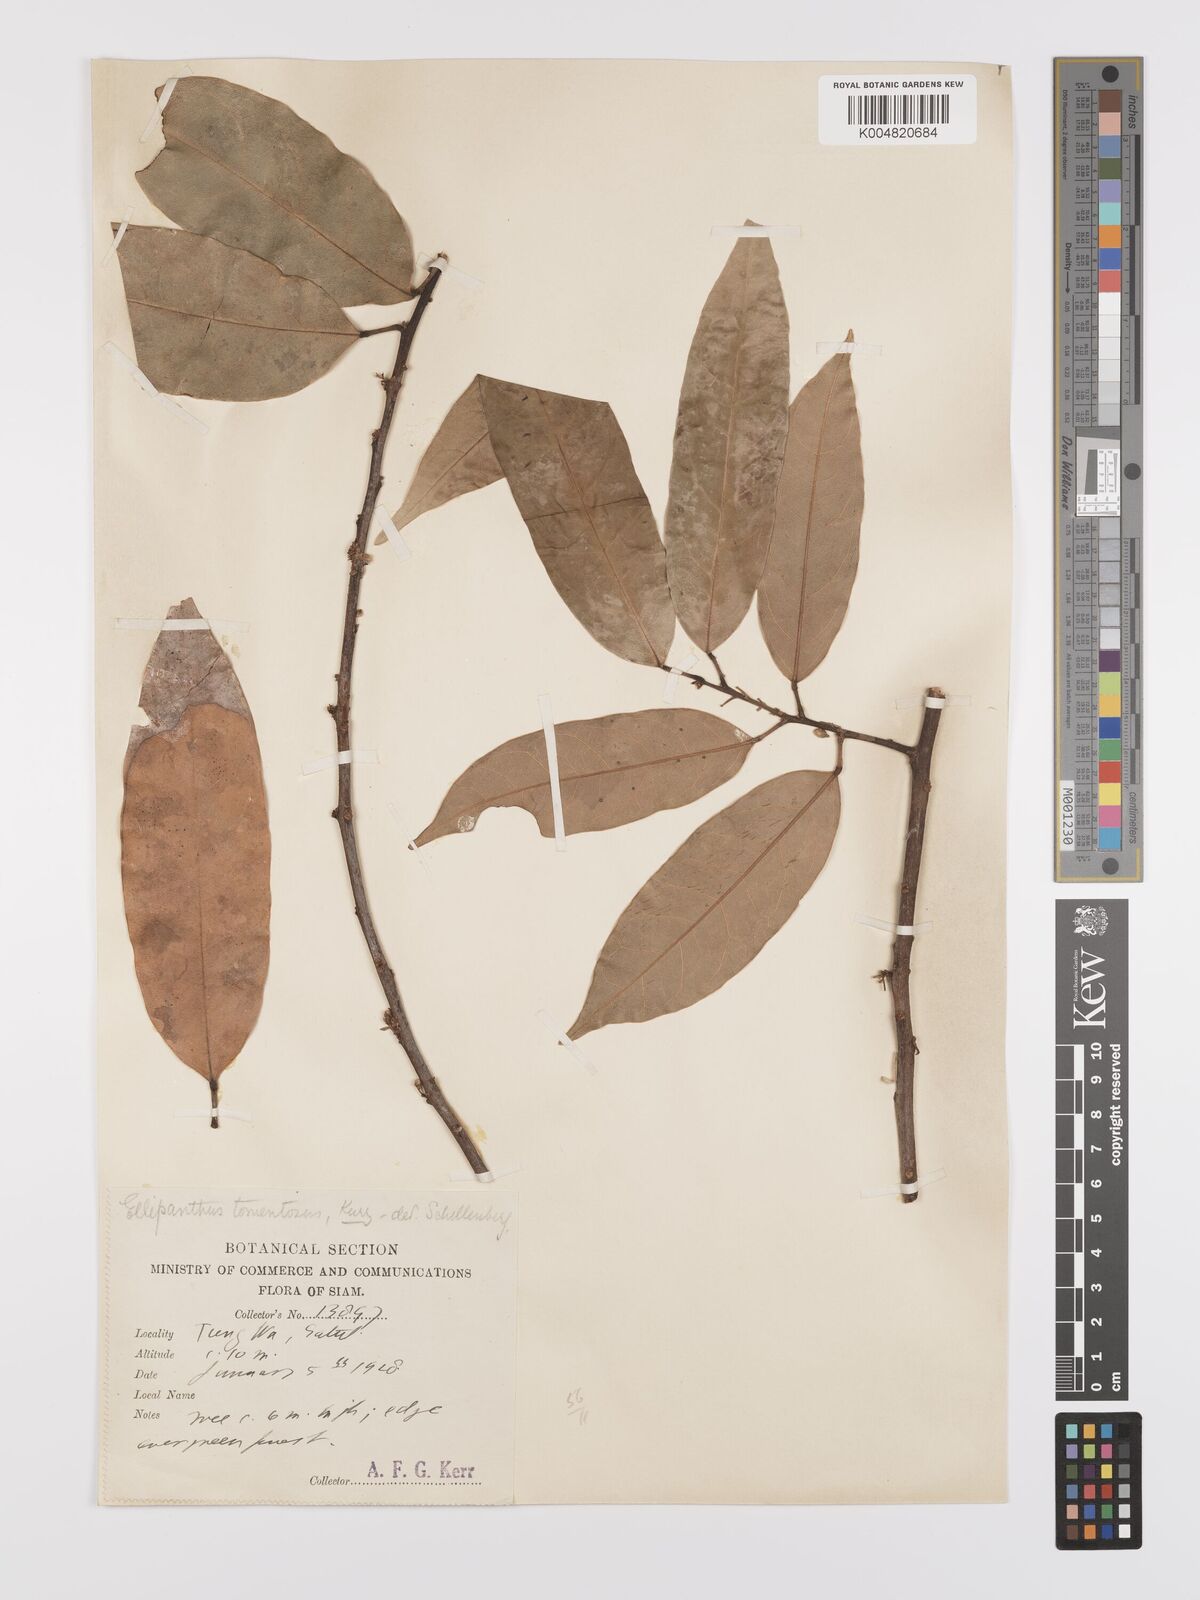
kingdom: Plantae
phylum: Tracheophyta
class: Magnoliopsida
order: Oxalidales
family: Connaraceae
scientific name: Connaraceae
